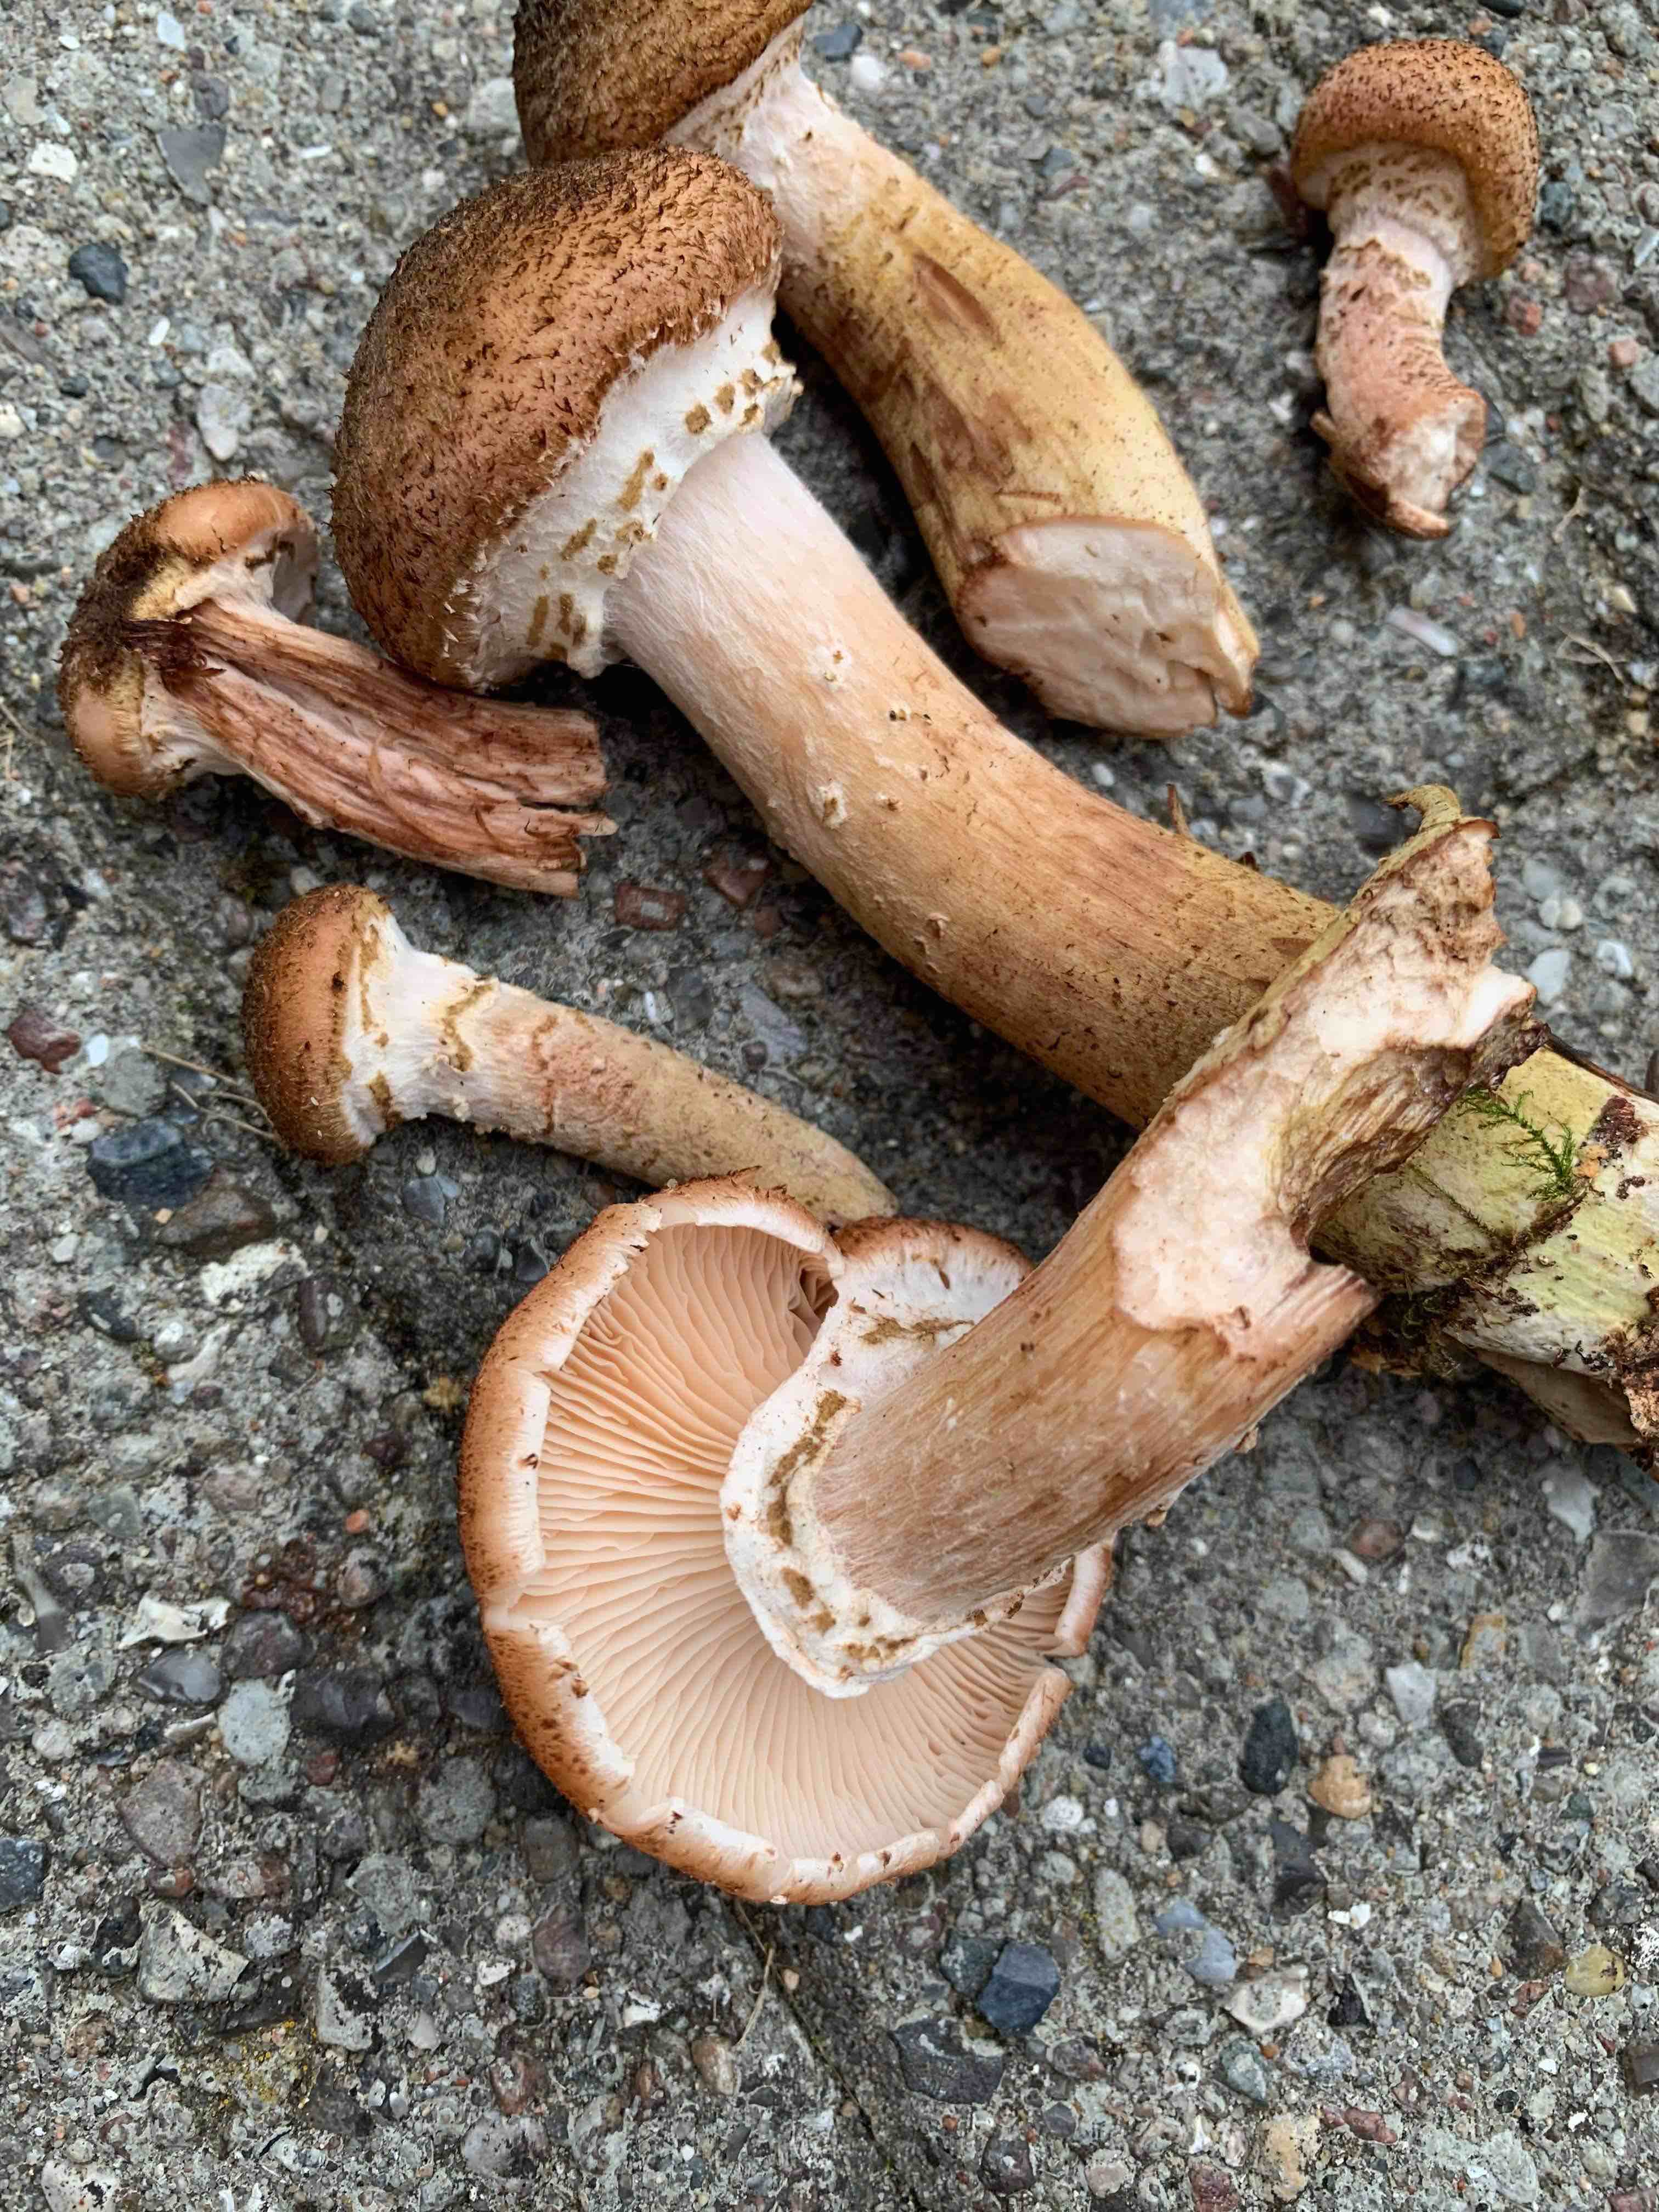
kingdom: Fungi
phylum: Basidiomycota
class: Agaricomycetes
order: Agaricales
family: Physalacriaceae
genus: Armillaria
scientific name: Armillaria ostoyae
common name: mørk honningsvamp
